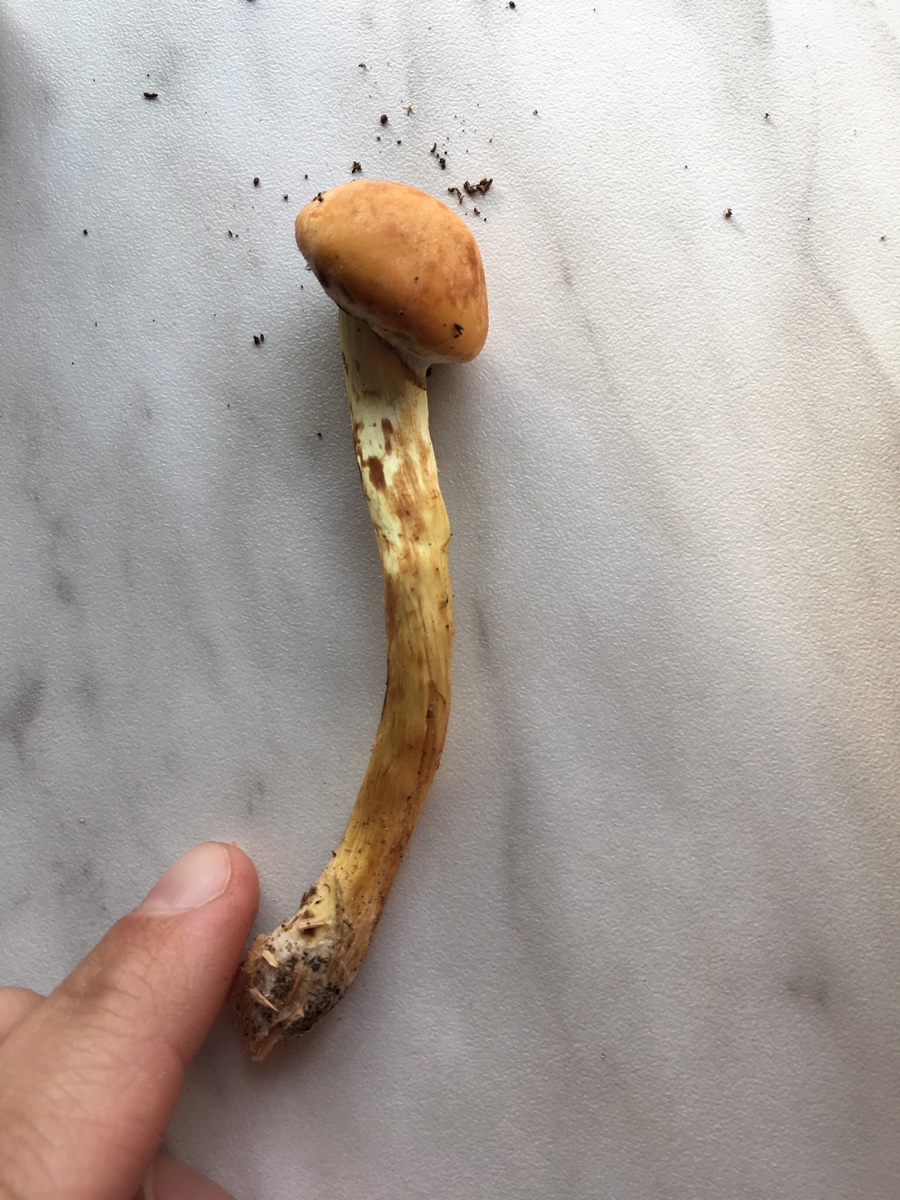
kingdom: Fungi
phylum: Basidiomycota
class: Agaricomycetes
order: Agaricales
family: Strophariaceae
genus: Hypholoma
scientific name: Hypholoma fasciculare
